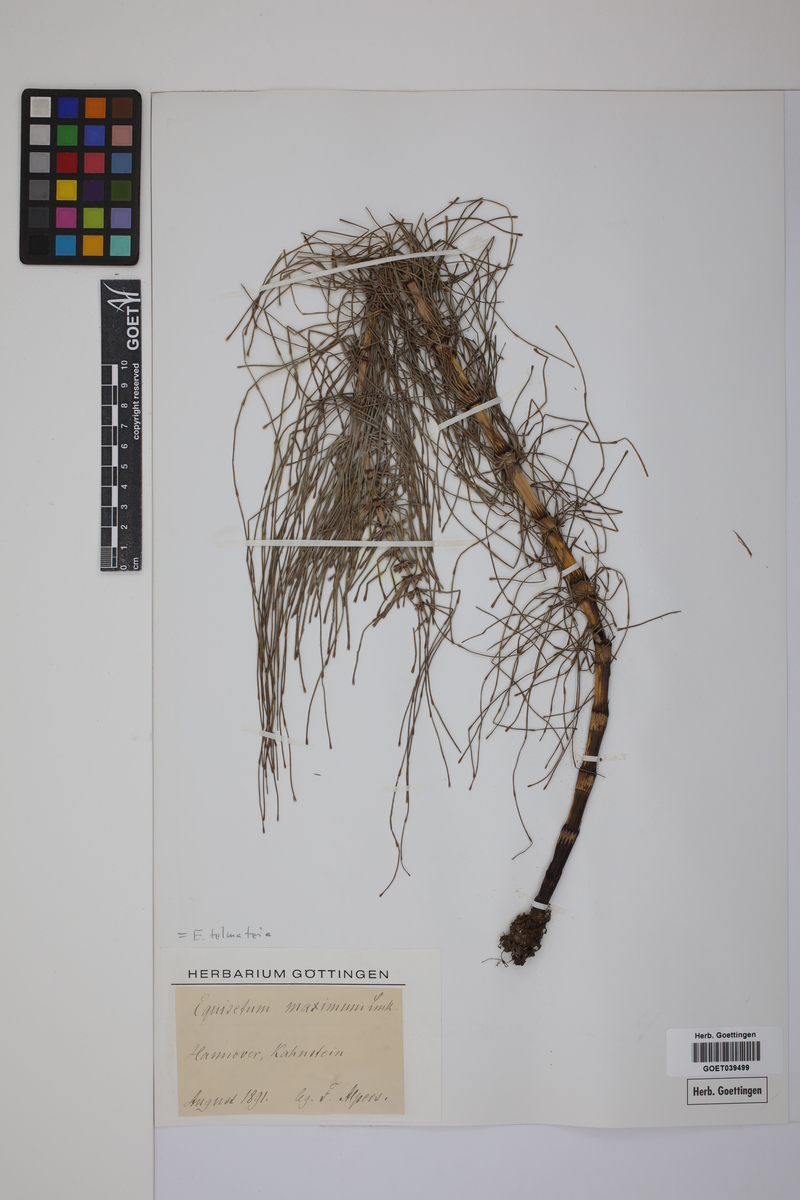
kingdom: Plantae
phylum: Tracheophyta
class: Polypodiopsida
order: Equisetales
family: Equisetaceae
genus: Equisetum
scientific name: Equisetum telmateia
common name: Great horsetail
